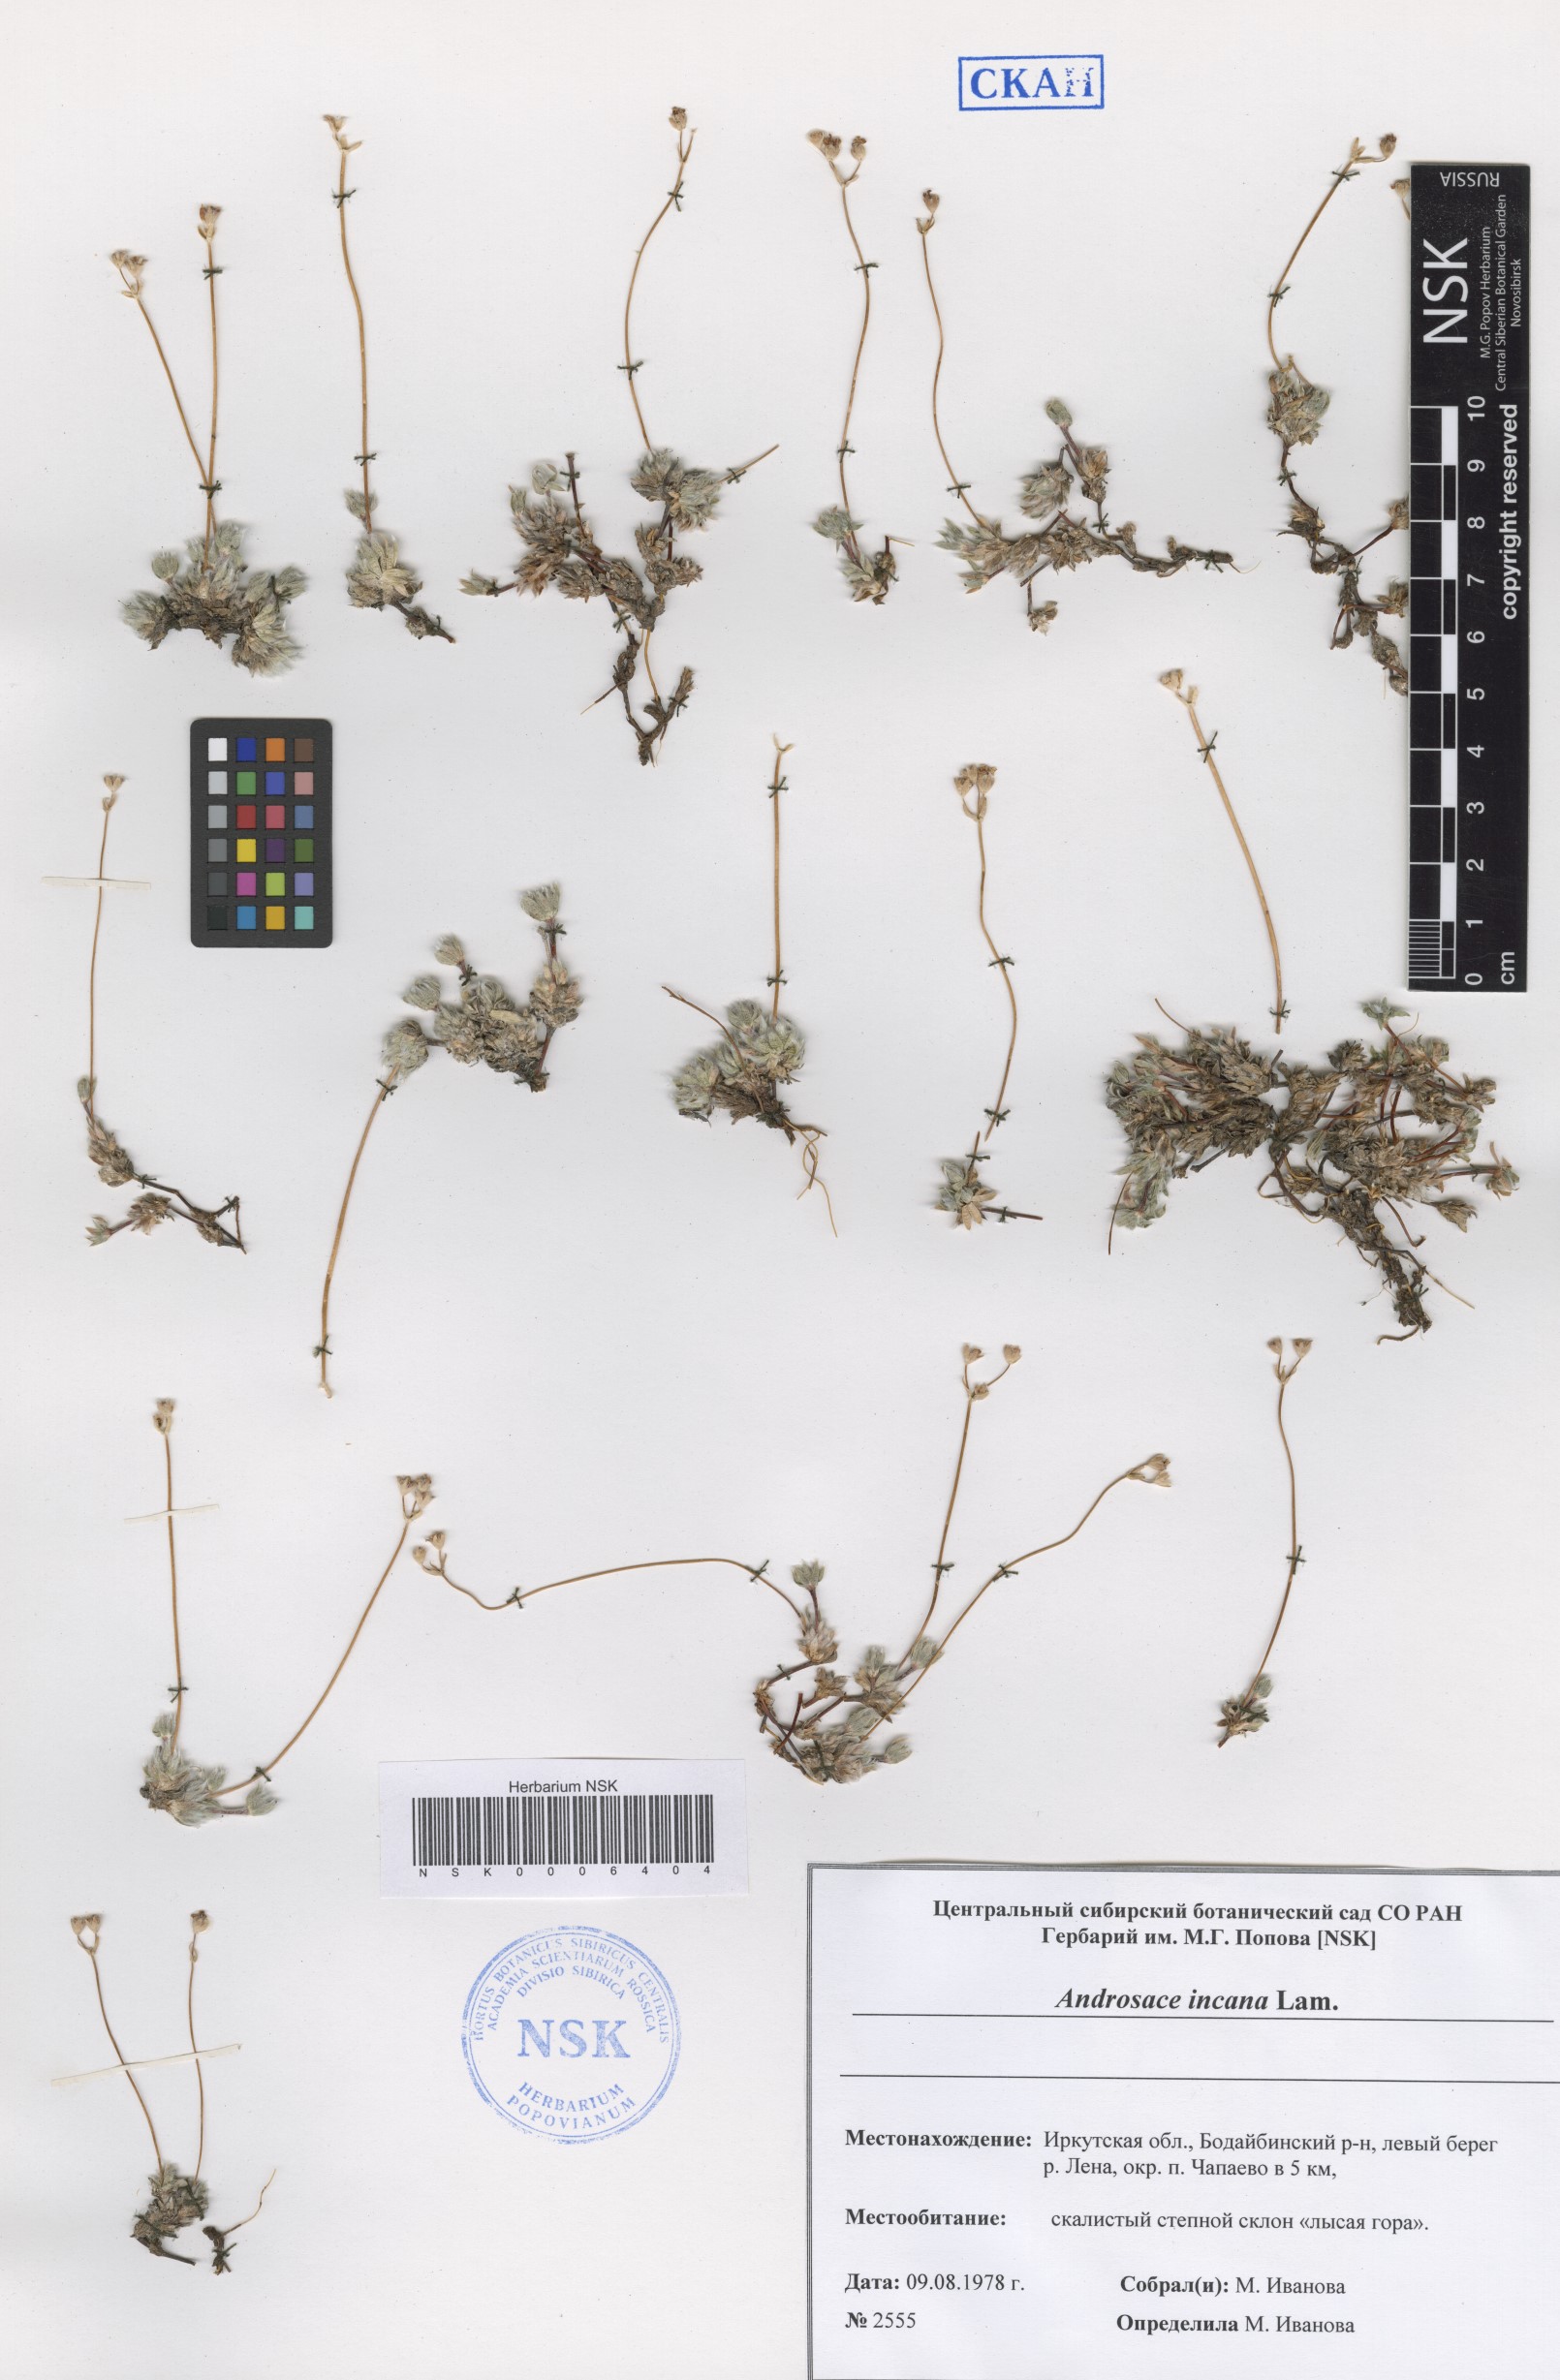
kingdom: Plantae
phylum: Tracheophyta
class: Magnoliopsida
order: Ericales
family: Primulaceae
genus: Androsace
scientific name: Androsace incana
